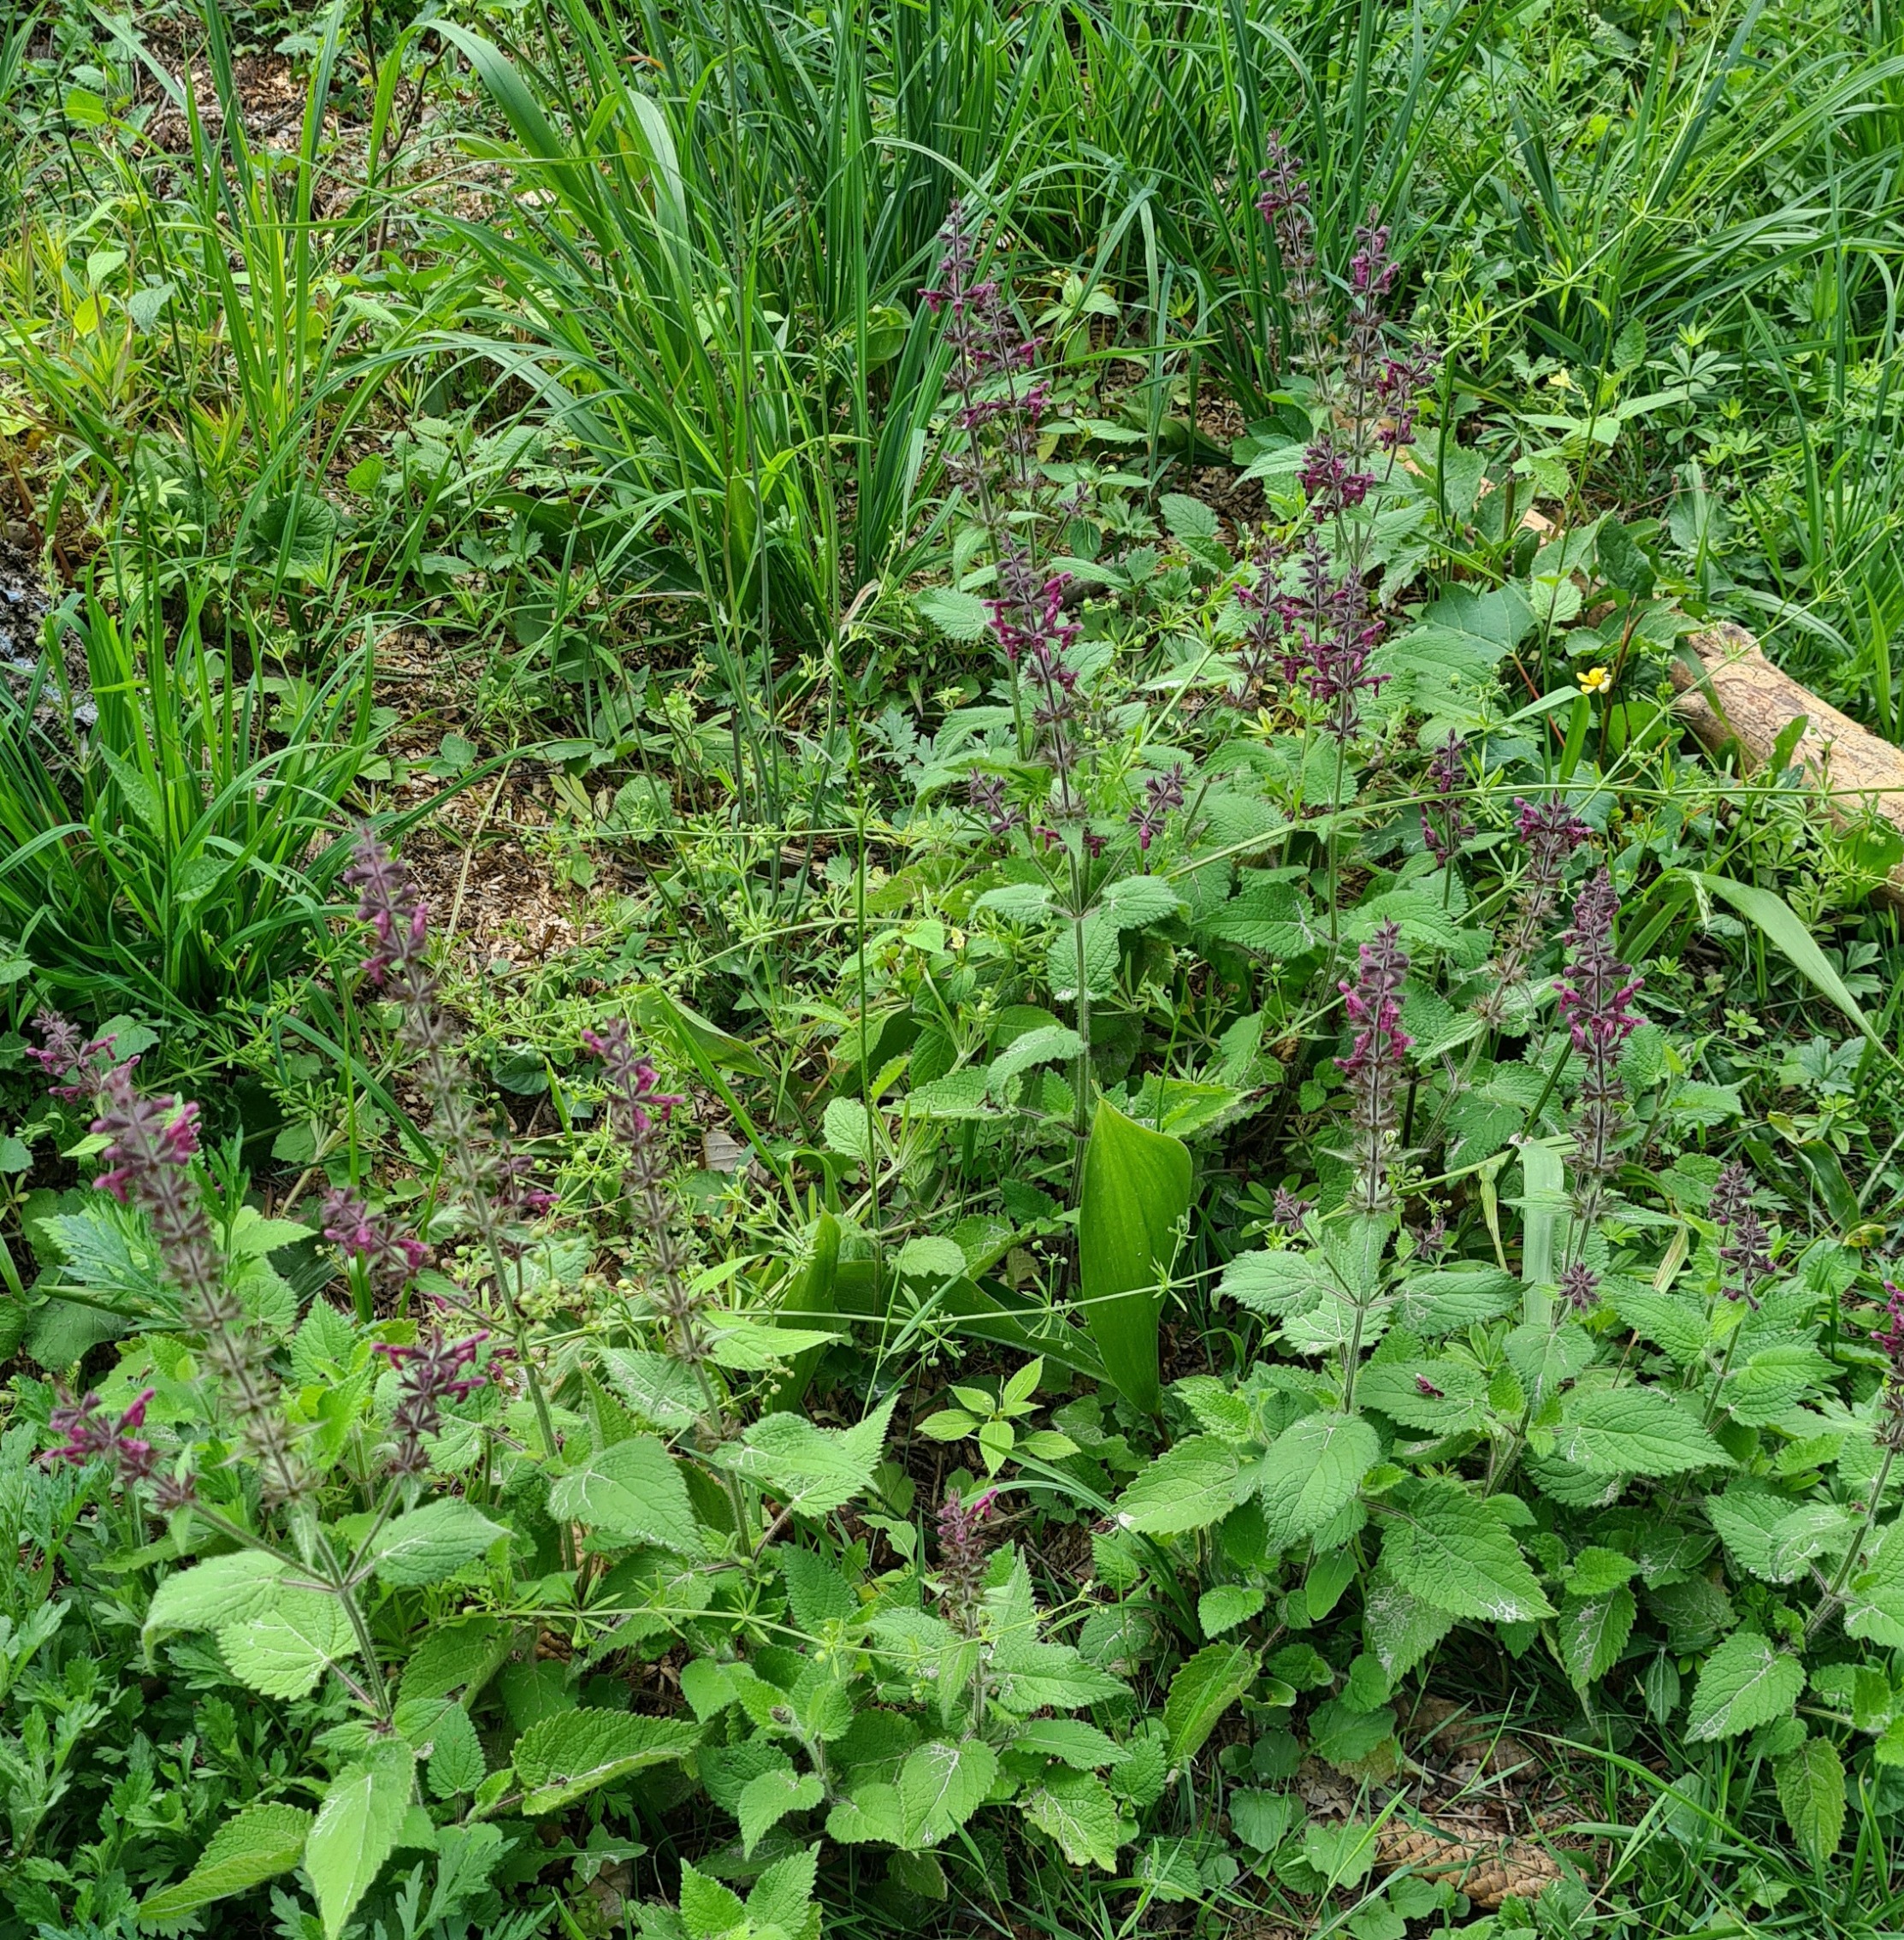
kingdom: Plantae
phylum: Tracheophyta
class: Magnoliopsida
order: Lamiales
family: Lamiaceae
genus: Stachys
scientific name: Stachys sylvatica
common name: Skov-galtetand
